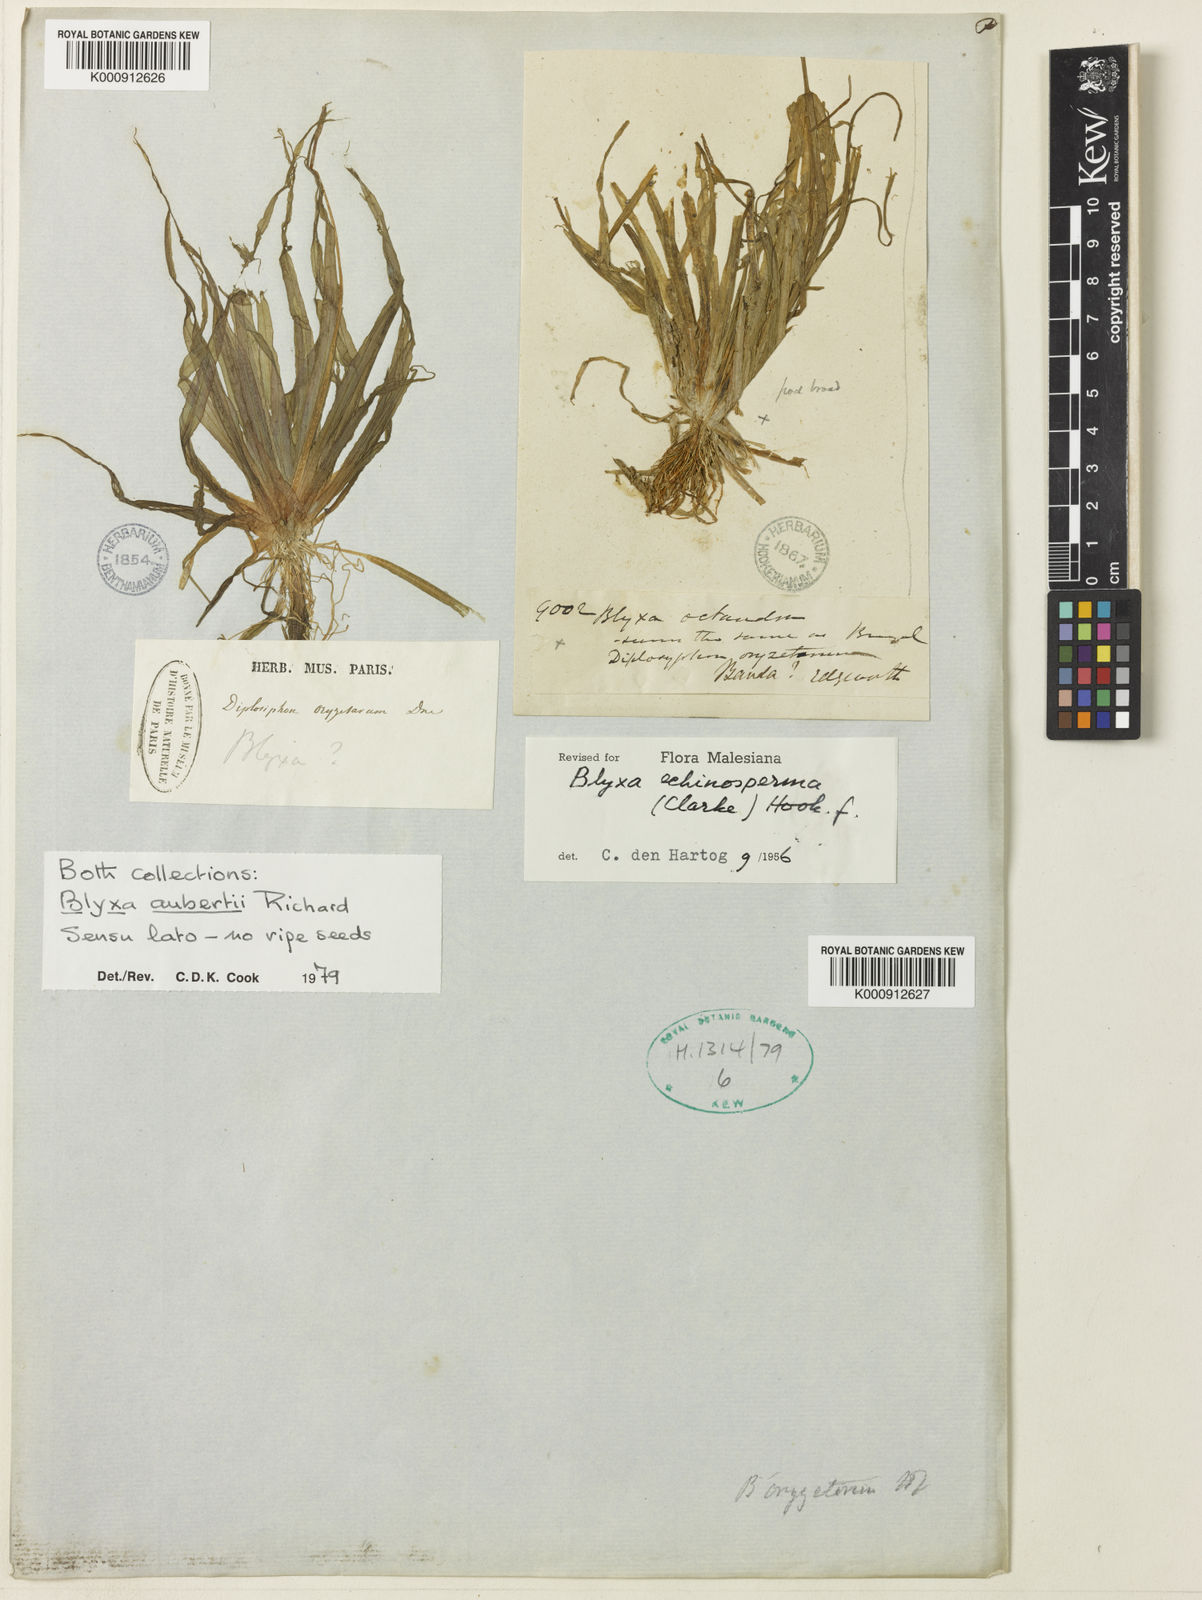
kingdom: Plantae
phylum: Tracheophyta
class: Liliopsida
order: Alismatales
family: Hydrocharitaceae
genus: Blyxa
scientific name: Blyxa
